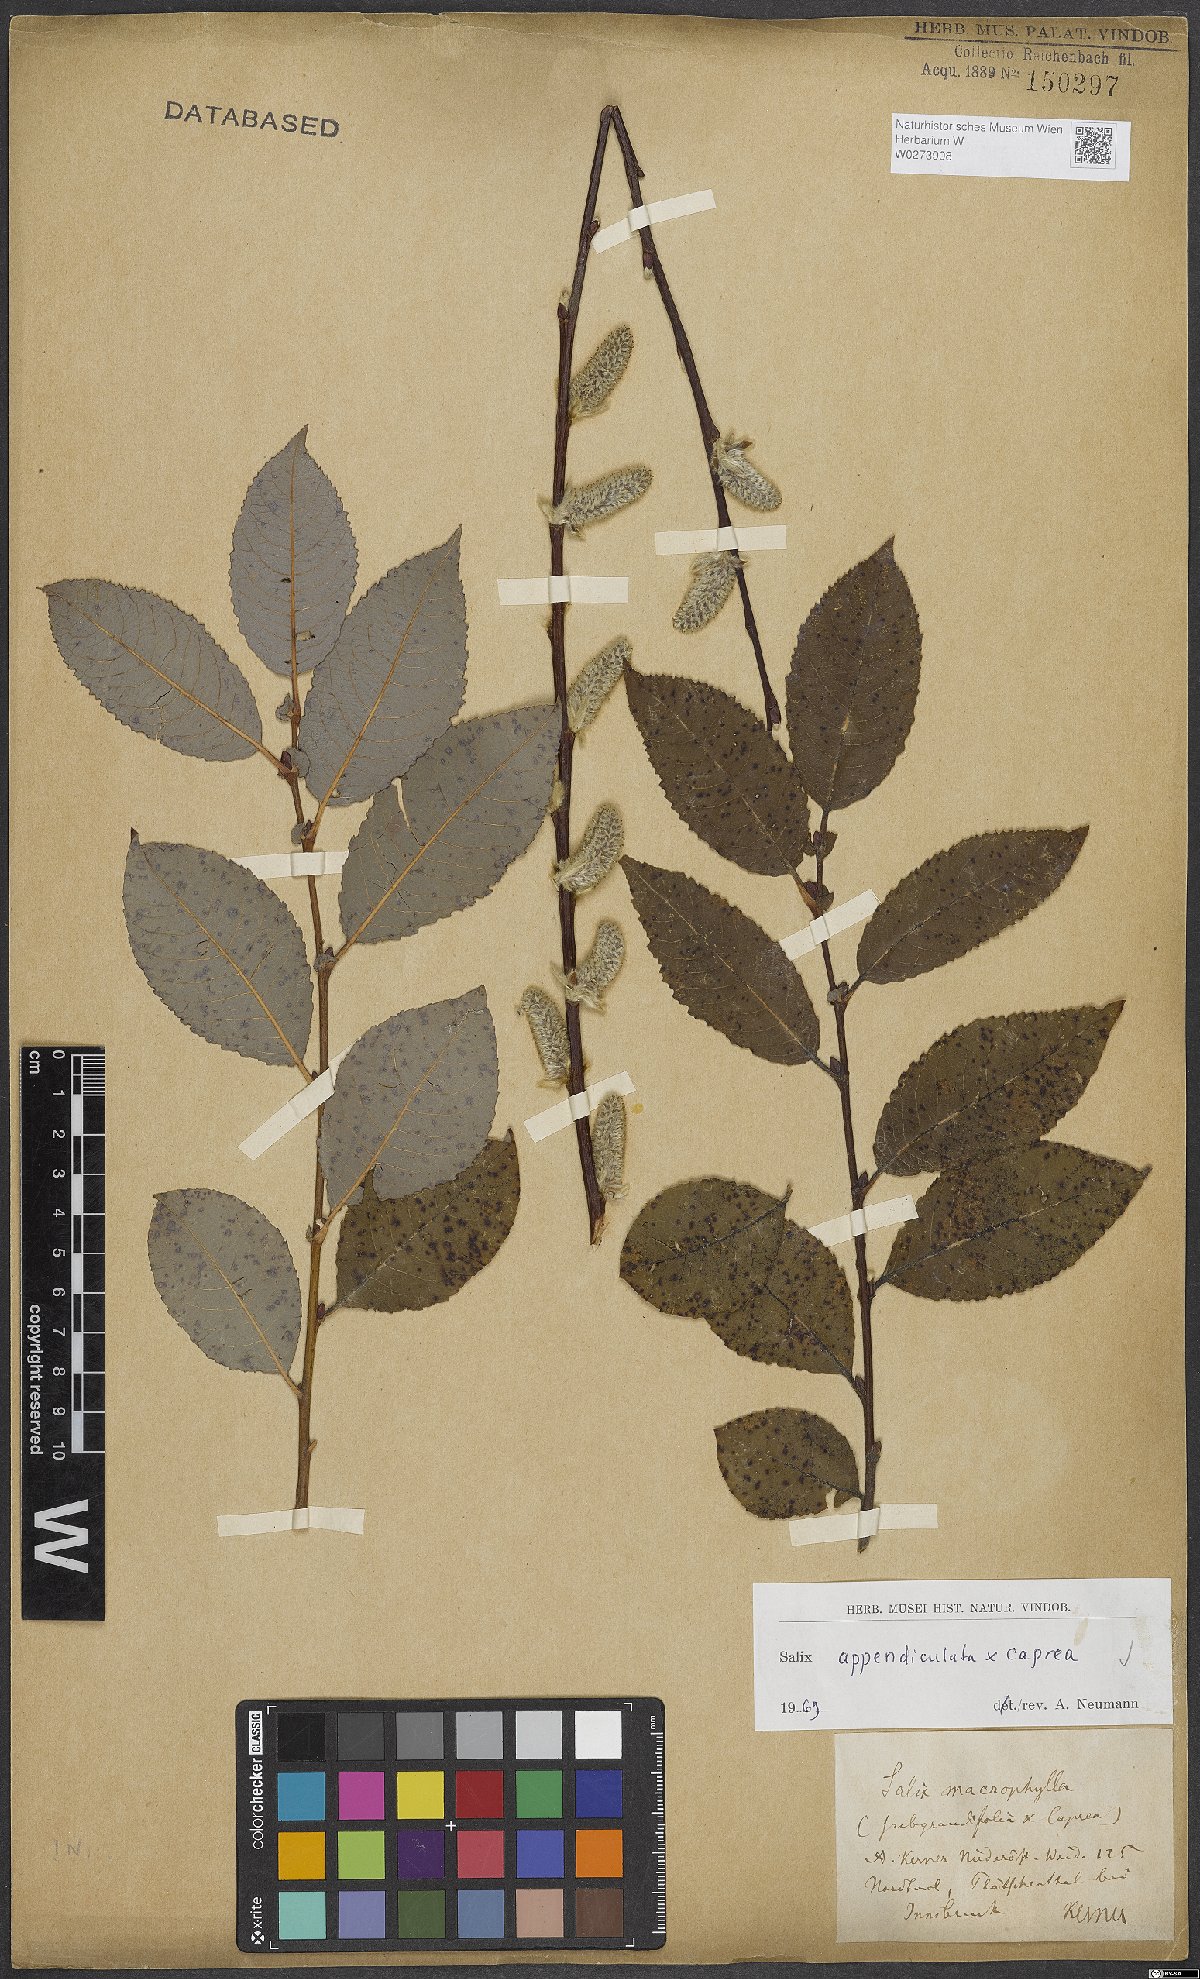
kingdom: Plantae
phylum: Tracheophyta
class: Magnoliopsida
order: Malpighiales
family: Salicaceae
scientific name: Salicaceae
